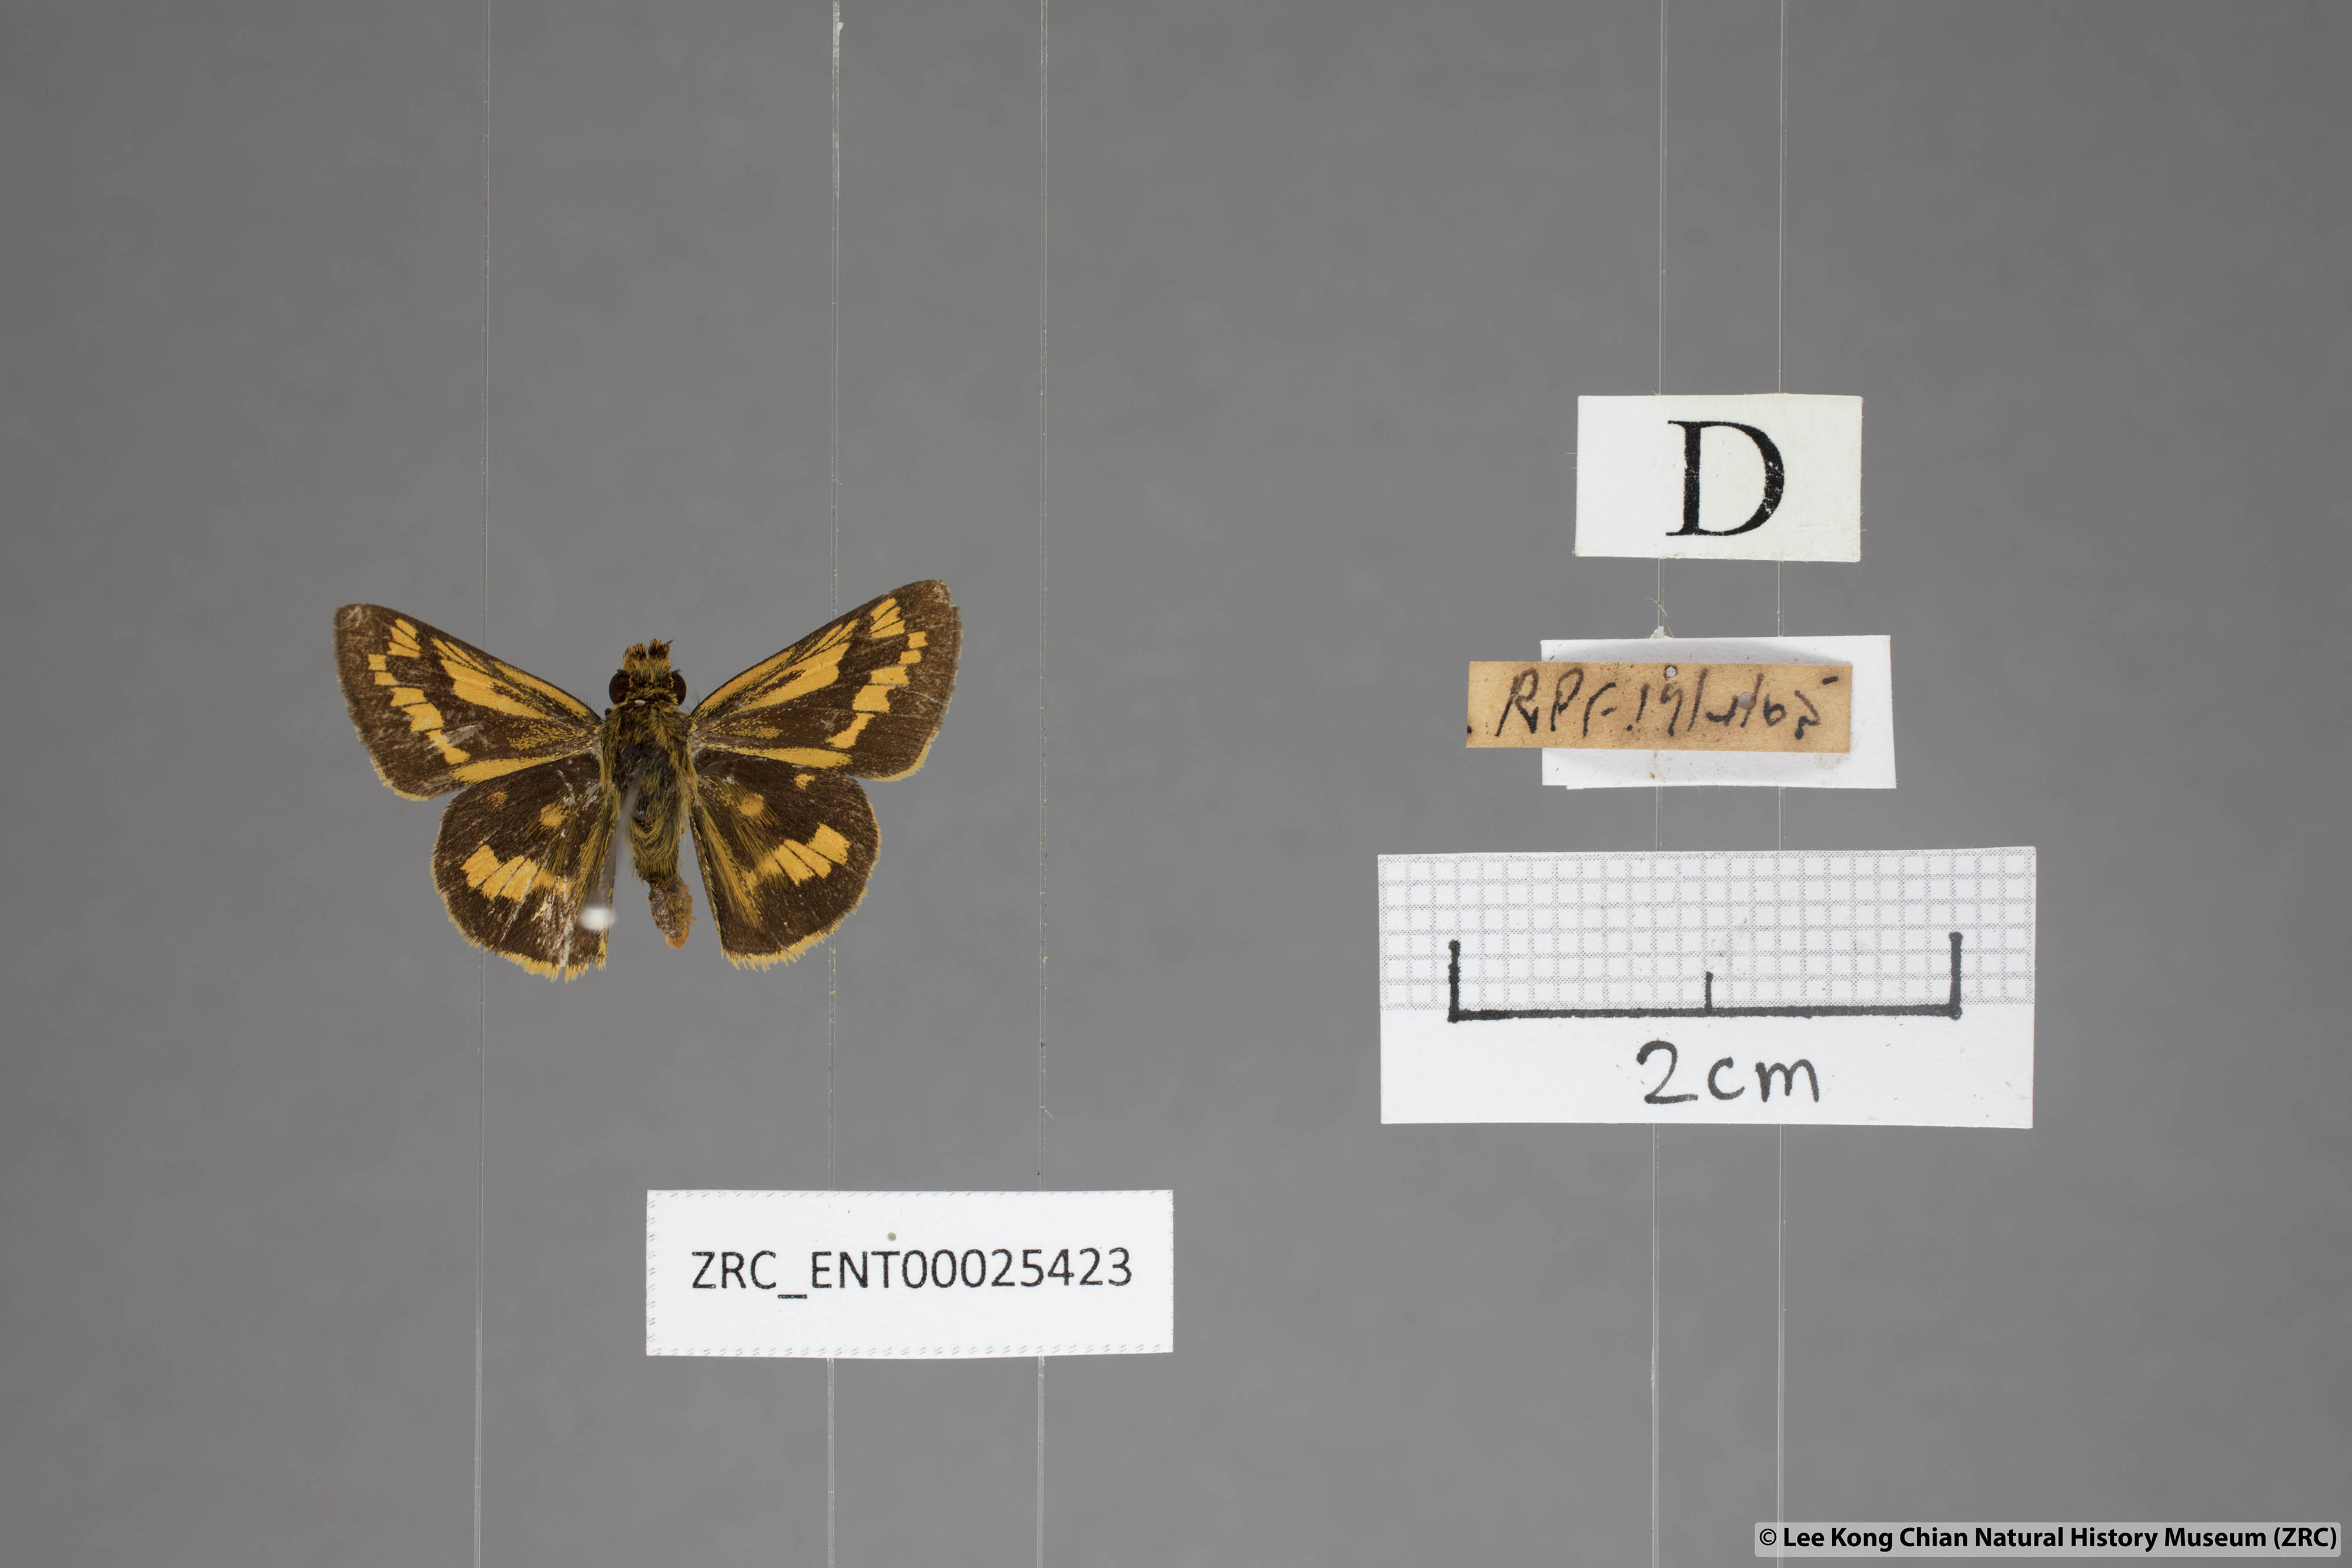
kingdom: Animalia
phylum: Arthropoda
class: Insecta
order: Lepidoptera
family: Hesperiidae
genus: Potanthus
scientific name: Potanthus omaha
